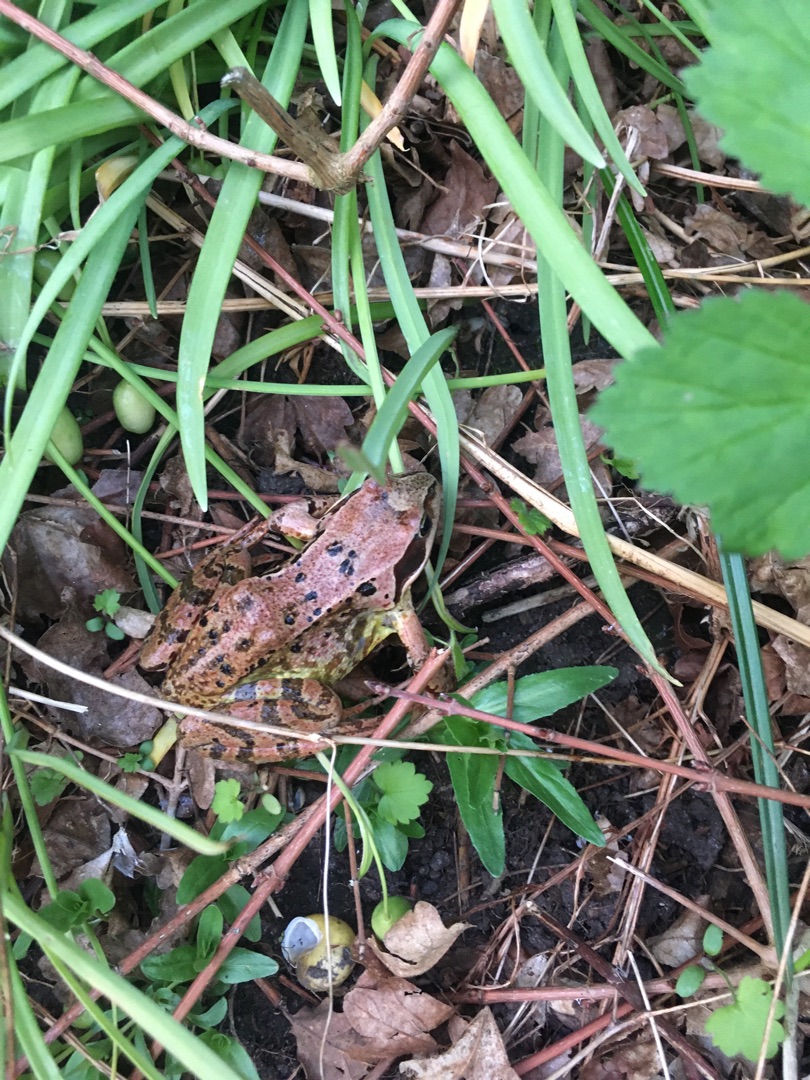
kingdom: Animalia
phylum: Chordata
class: Amphibia
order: Anura
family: Ranidae
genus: Rana
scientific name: Rana temporaria
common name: Butsnudet frø
